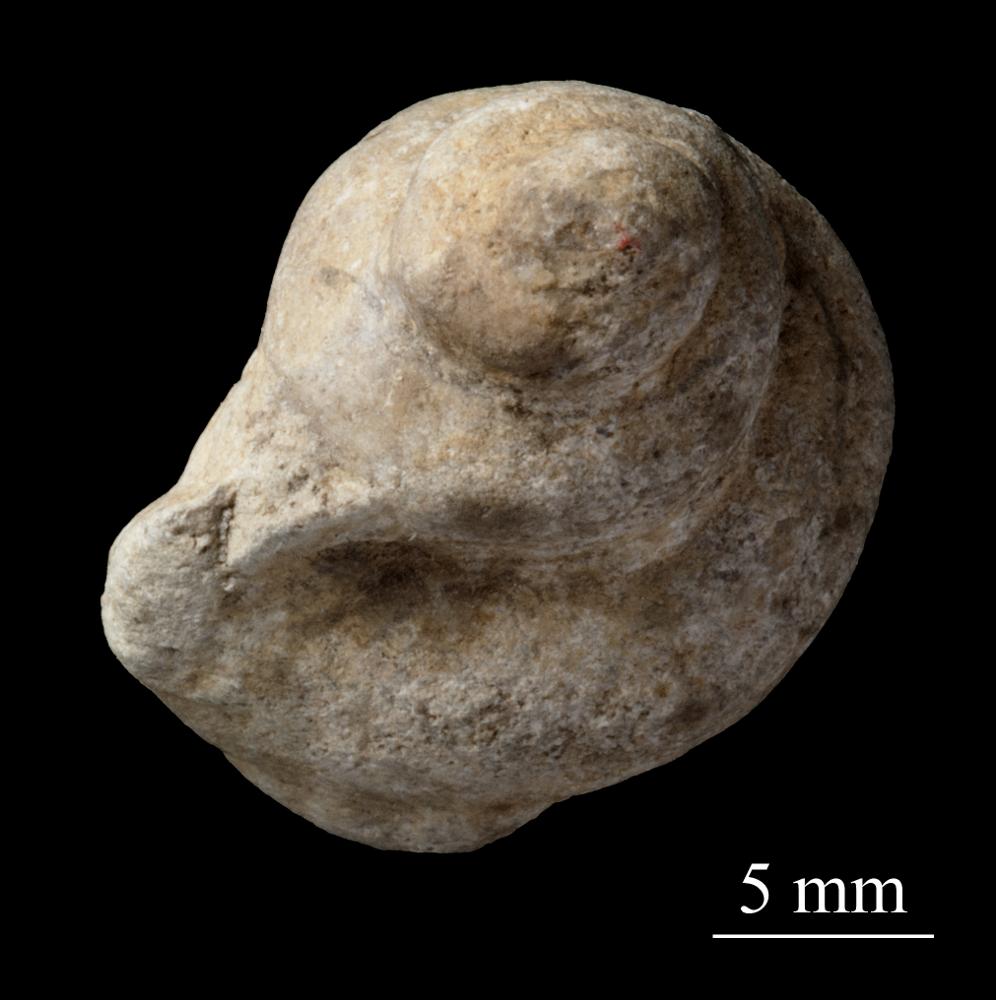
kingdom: Animalia
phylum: Mollusca
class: Gastropoda
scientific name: Gastropoda
